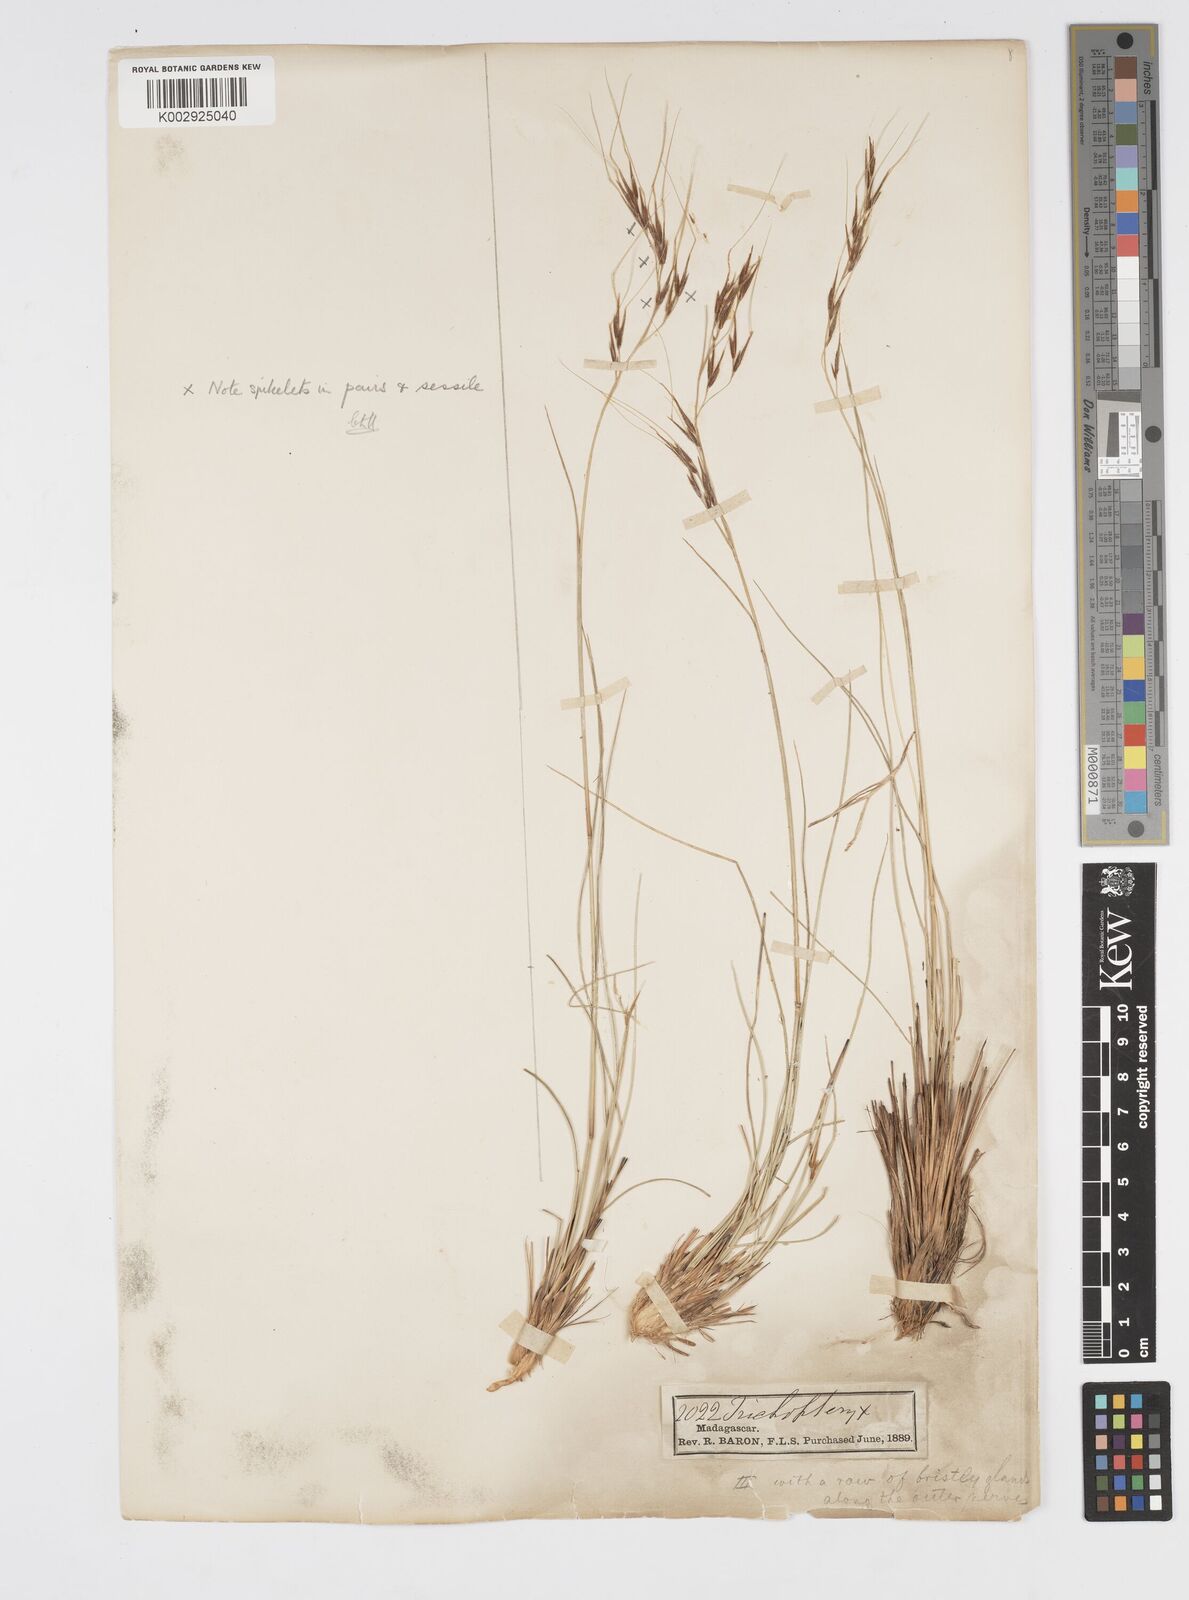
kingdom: Plantae
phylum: Tracheophyta
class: Liliopsida
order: Poales
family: Poaceae
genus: Loudetia
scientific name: Loudetia
